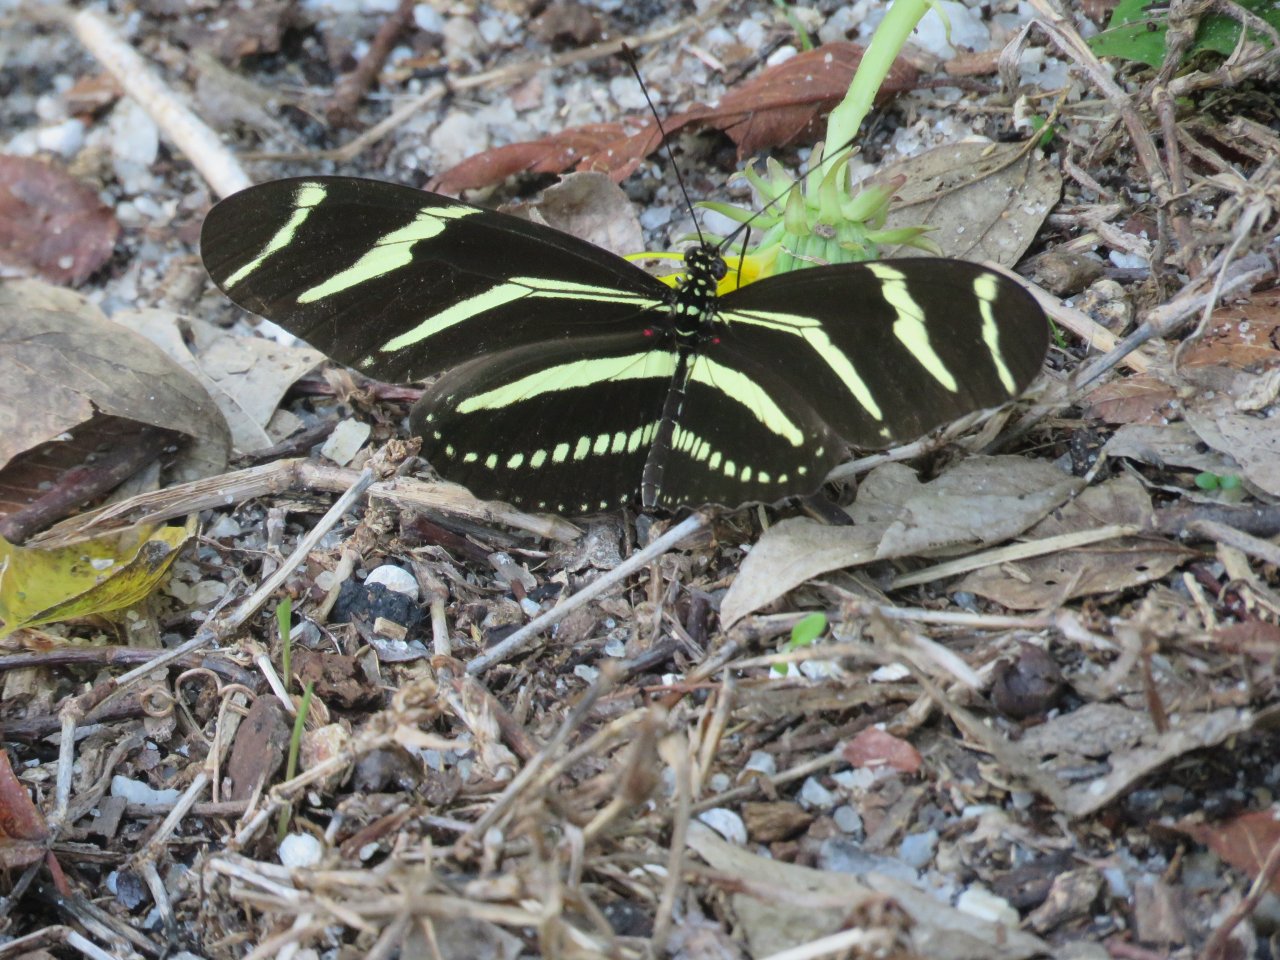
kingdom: Animalia
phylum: Arthropoda
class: Insecta
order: Lepidoptera
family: Nymphalidae
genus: Heliconius
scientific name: Heliconius charithonia
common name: Zebra Longwing
